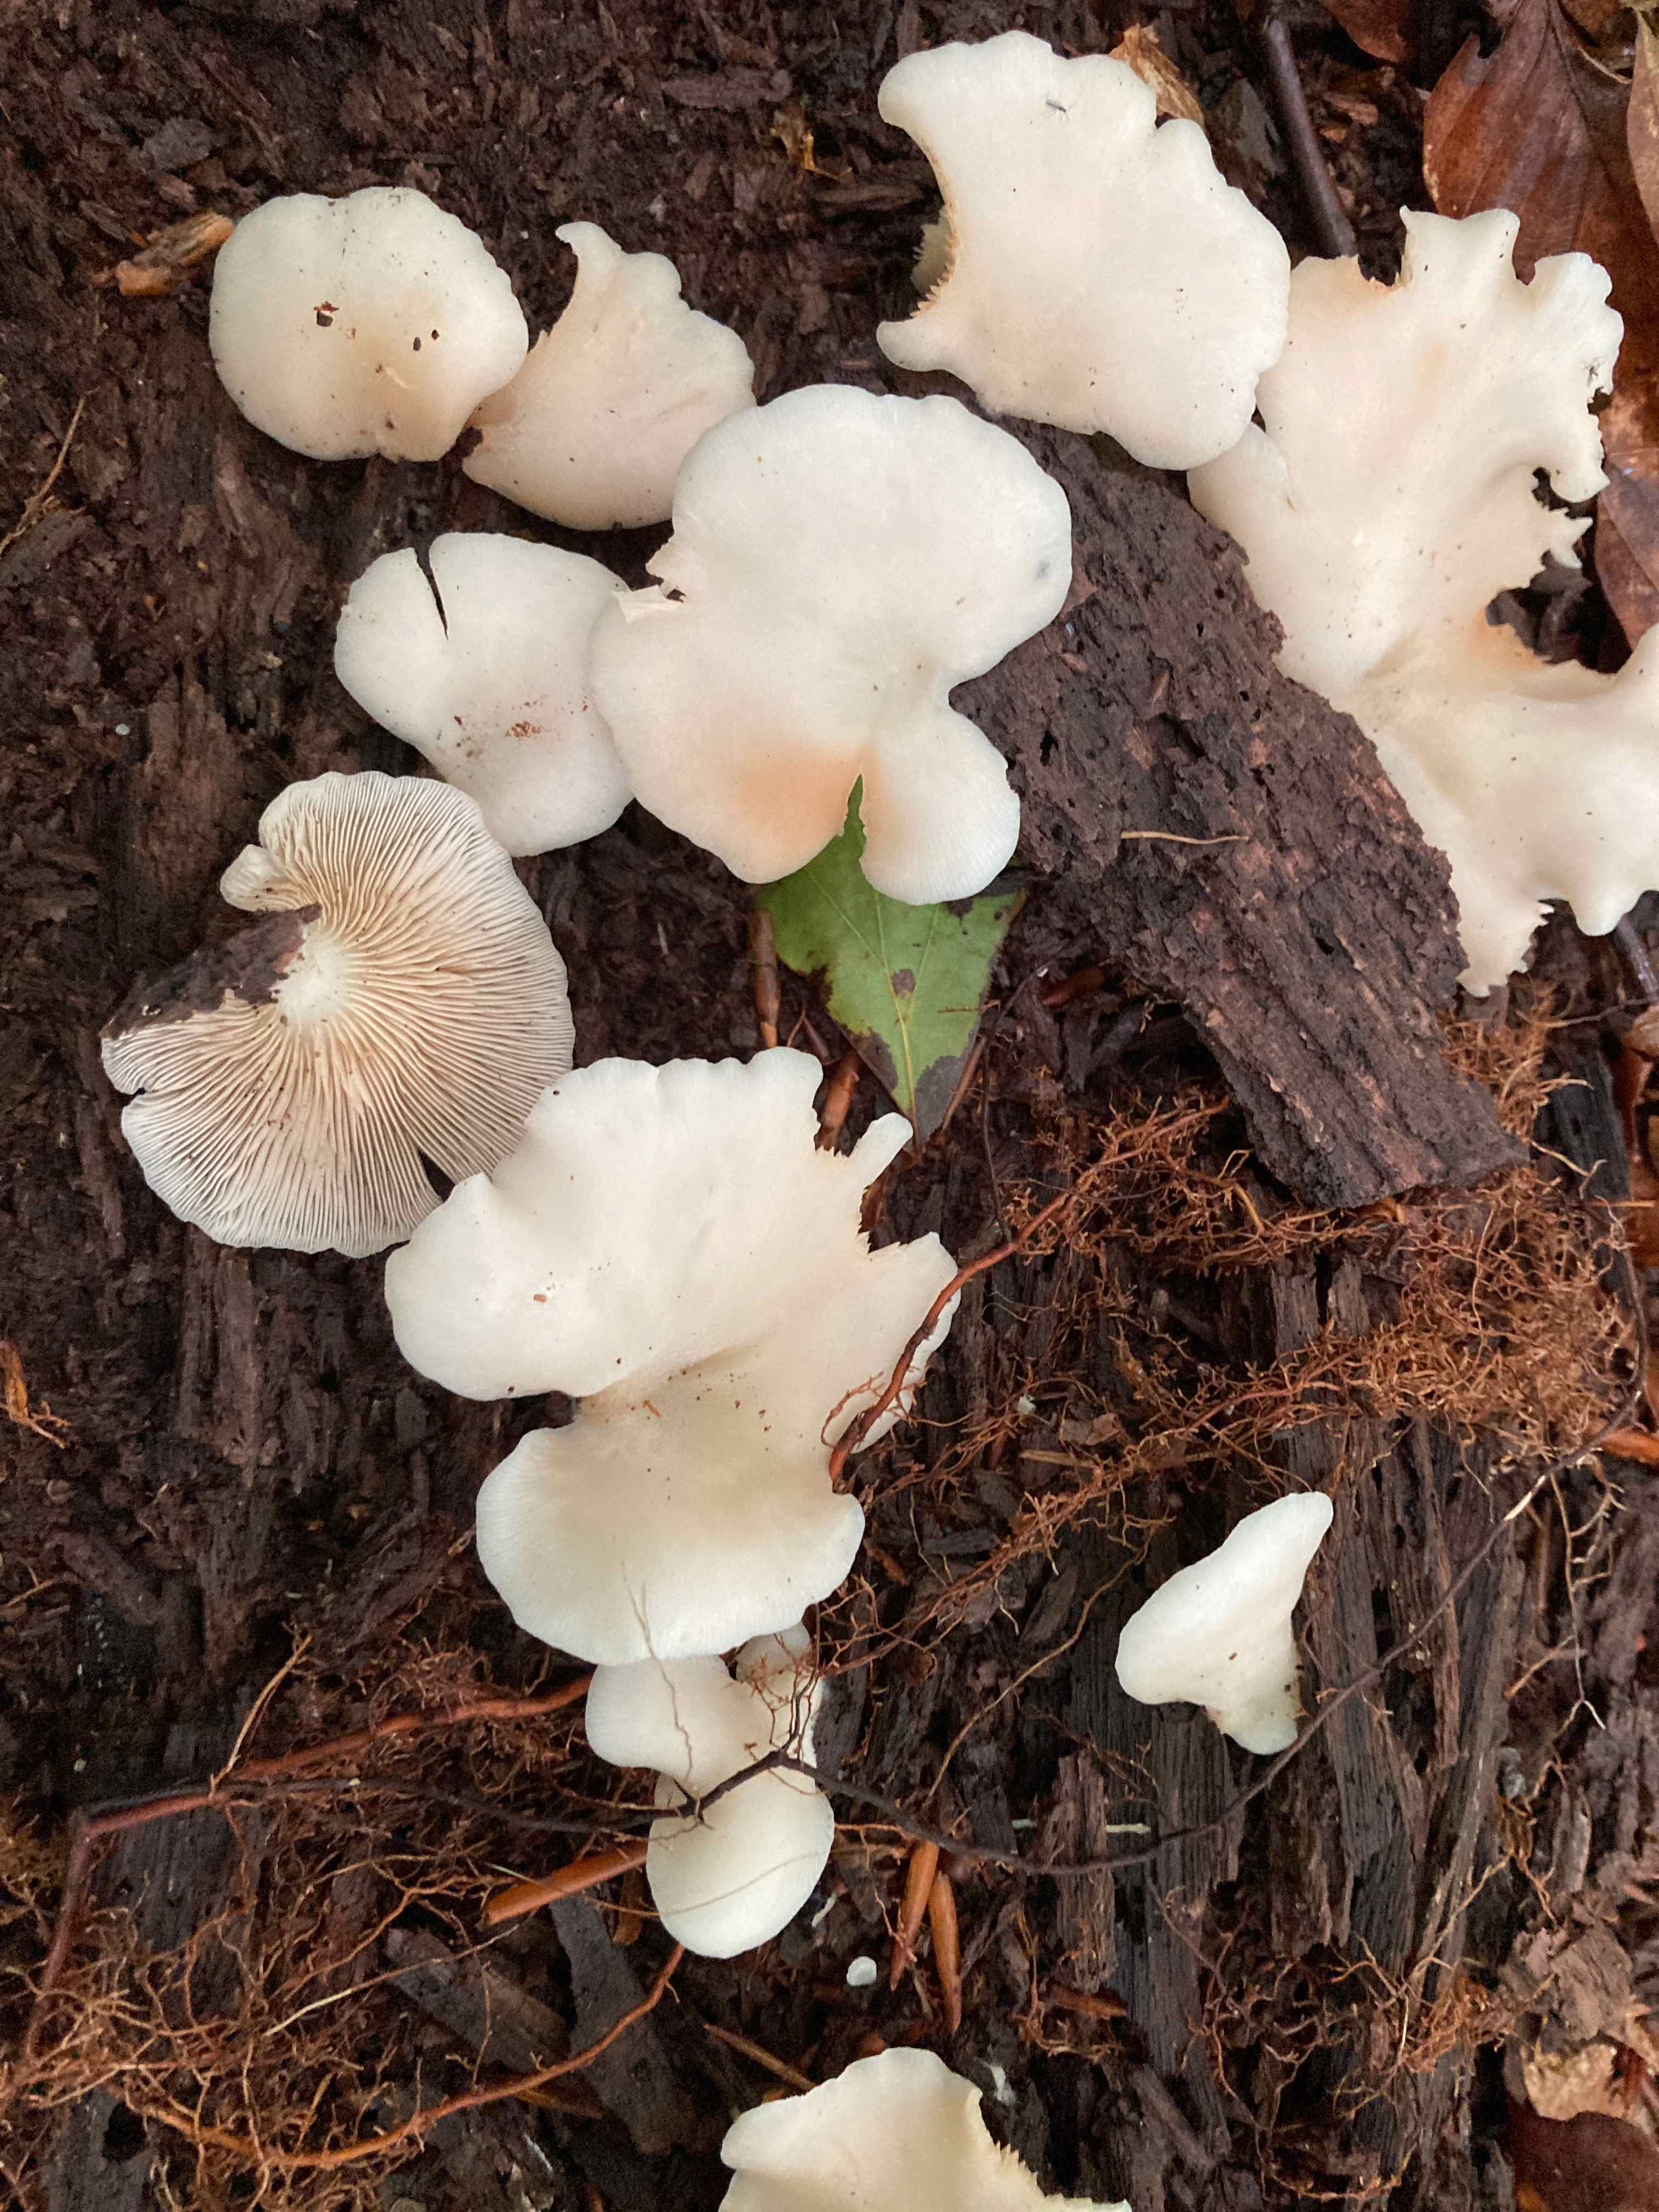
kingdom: Fungi
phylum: Basidiomycota
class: Agaricomycetes
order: Agaricales
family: Crepidotaceae
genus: Crepidotus
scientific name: Crepidotus applanatus
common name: tvefarvet muslingesvamp
